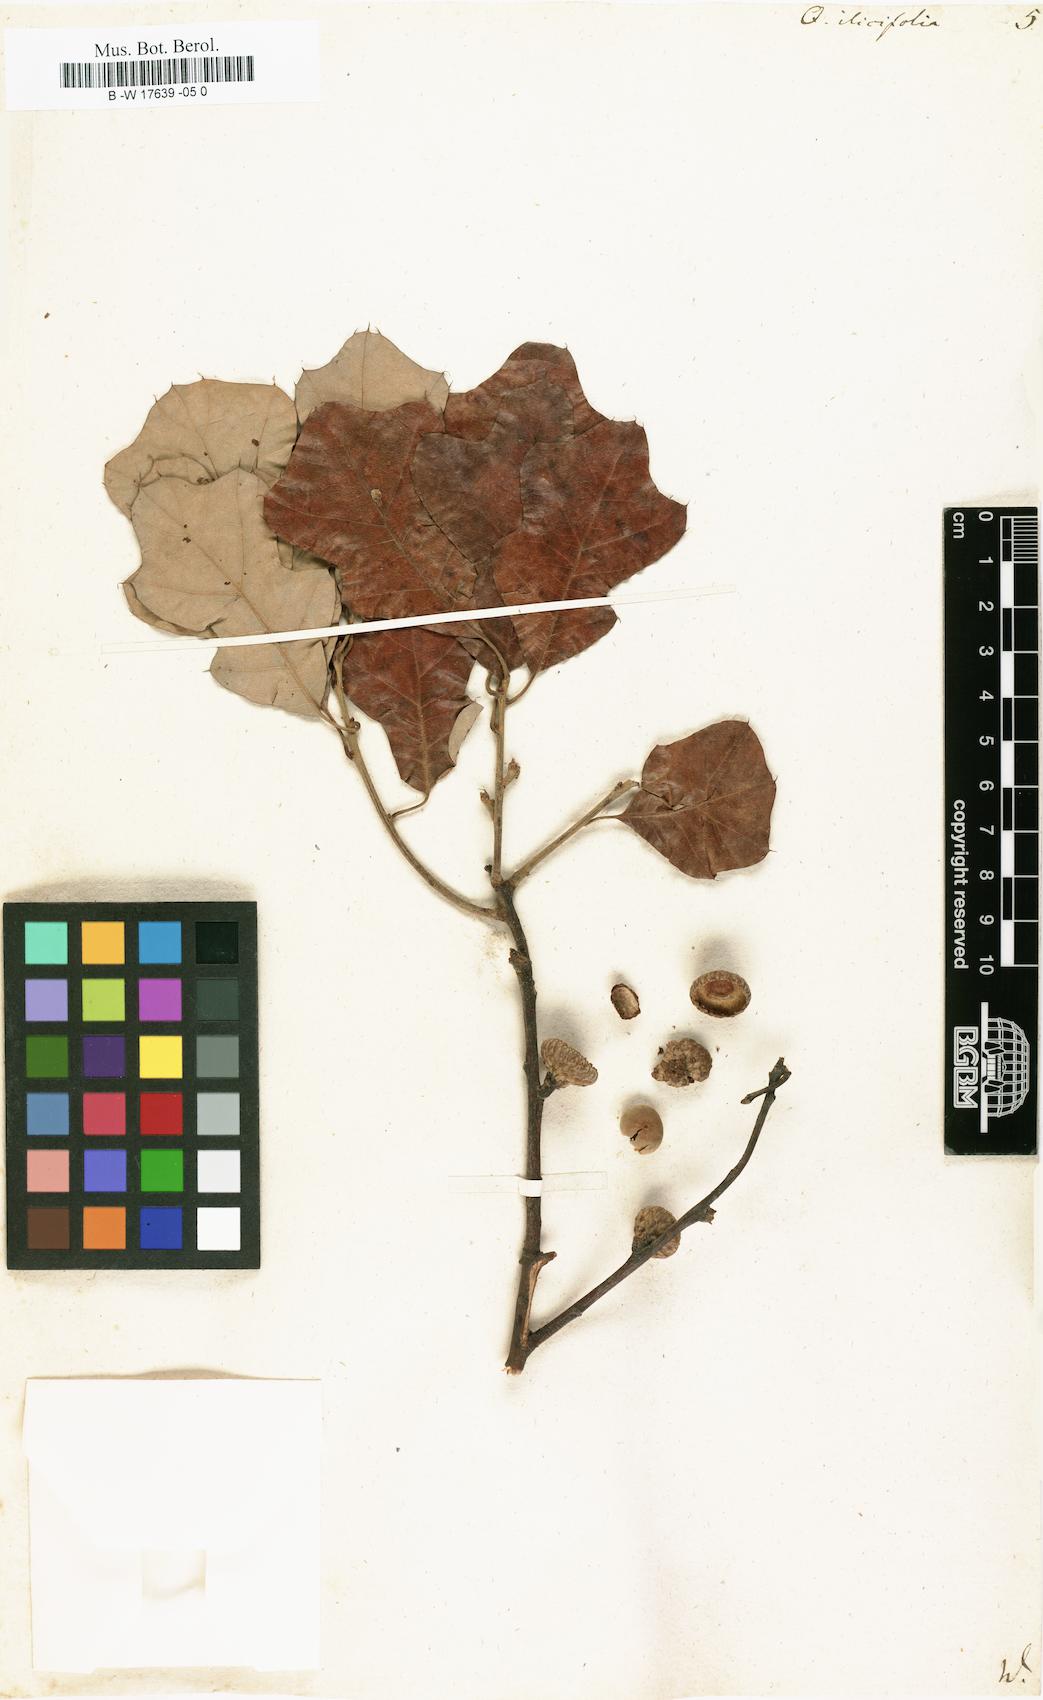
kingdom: Plantae
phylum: Tracheophyta
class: Magnoliopsida
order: Fagales
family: Fagaceae
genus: Quercus
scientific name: Quercus ilicifolia
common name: Bear oak
